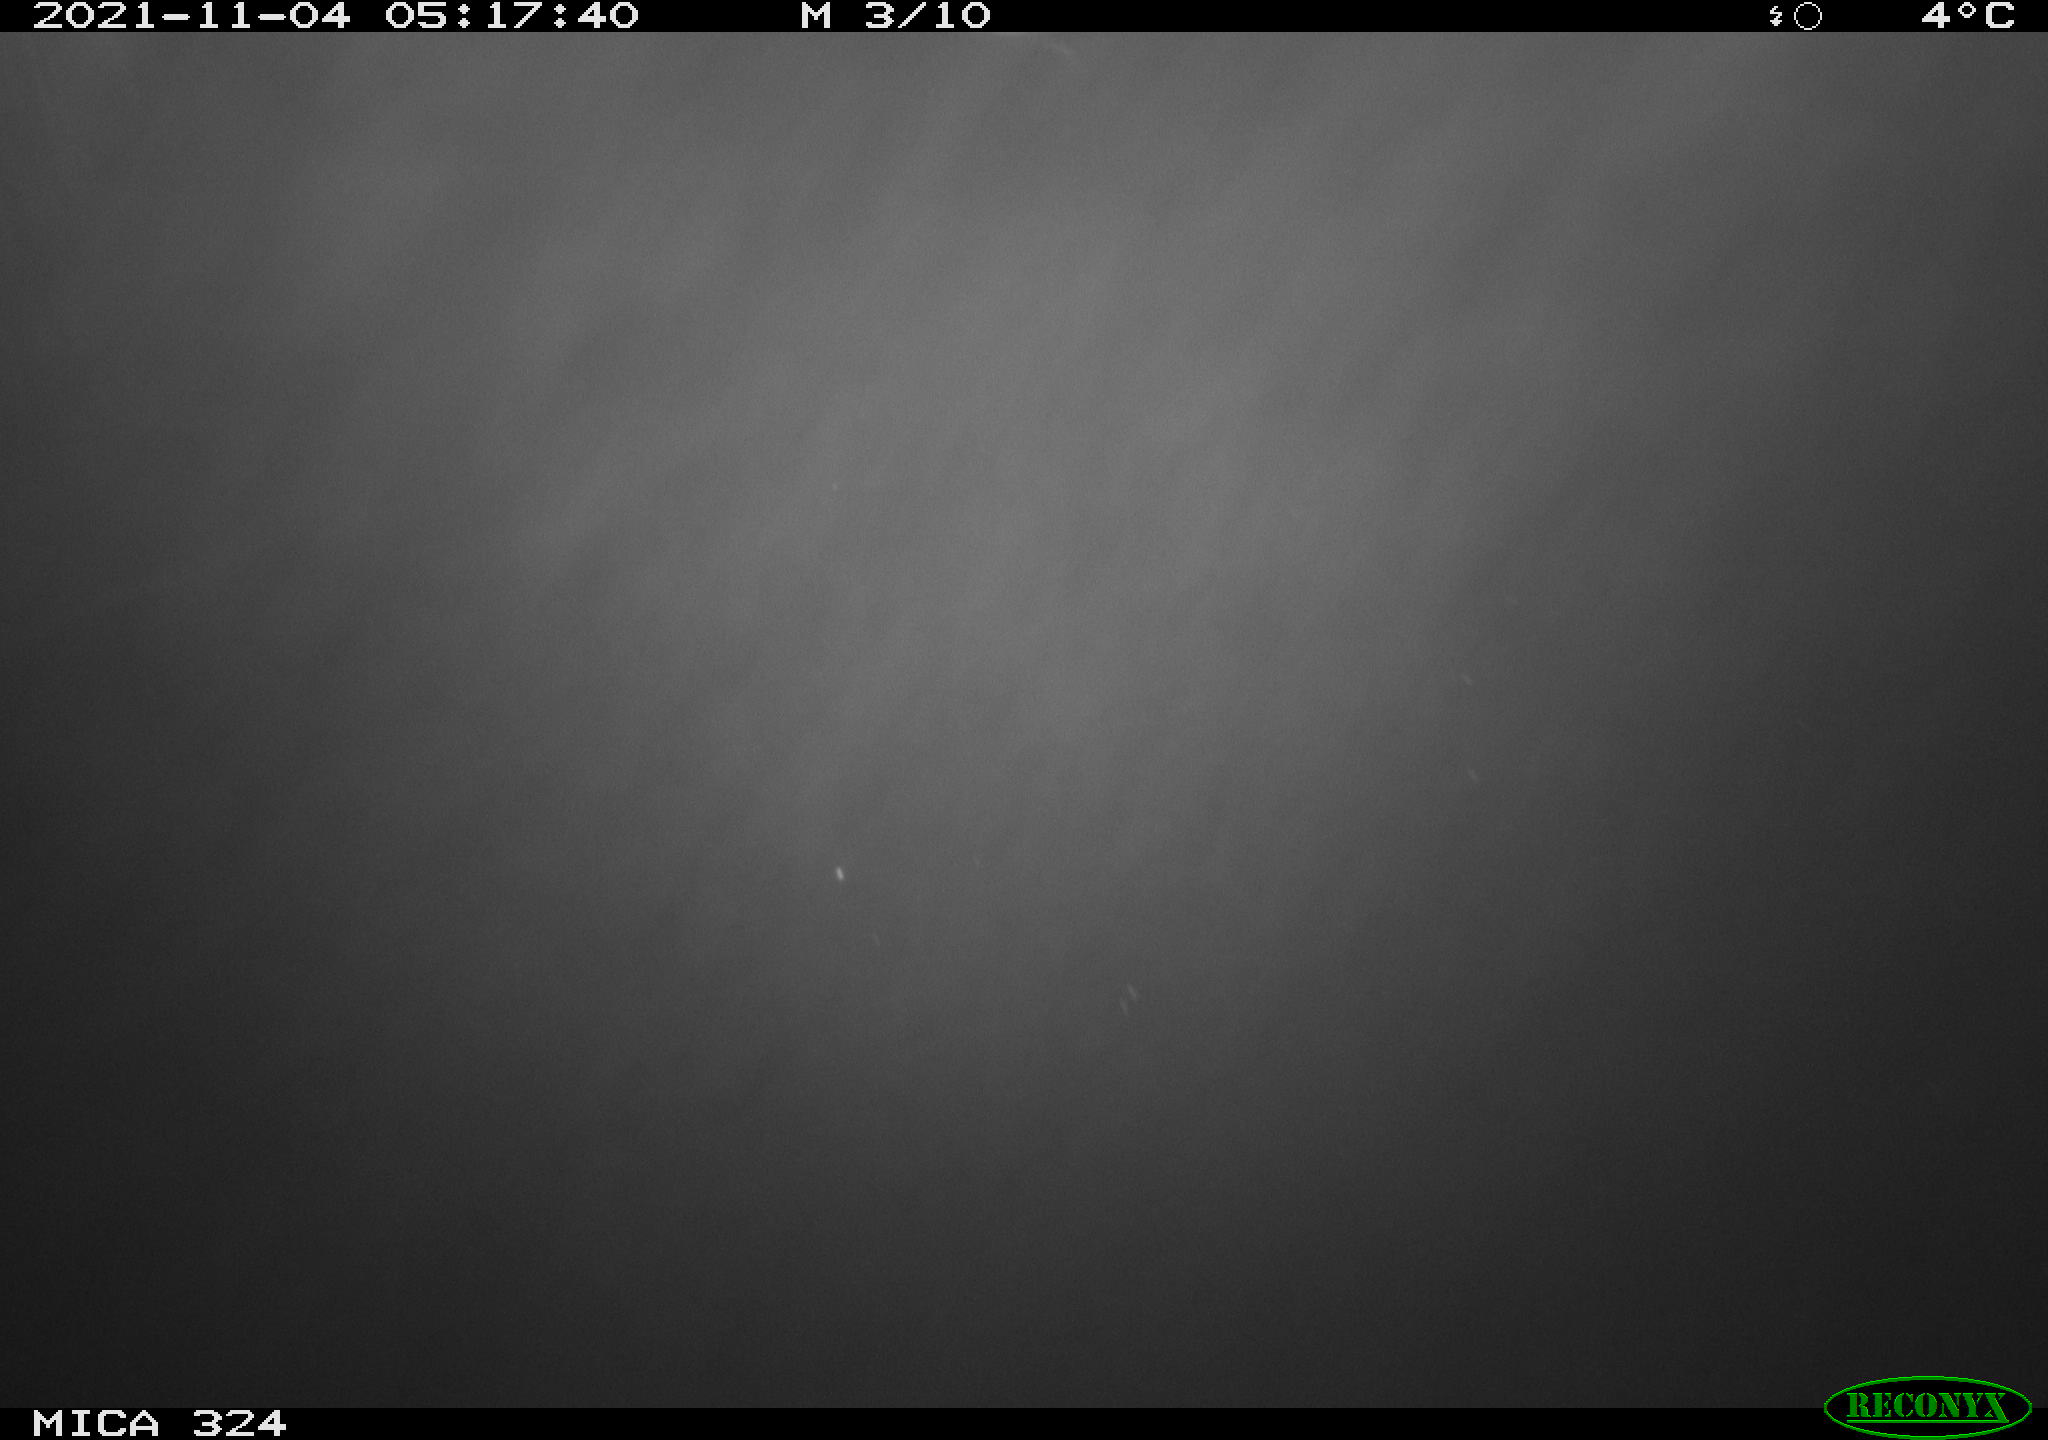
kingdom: Animalia
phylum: Chordata
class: Mammalia
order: Rodentia
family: Cricetidae
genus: Ondatra
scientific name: Ondatra zibethicus
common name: Muskrat
